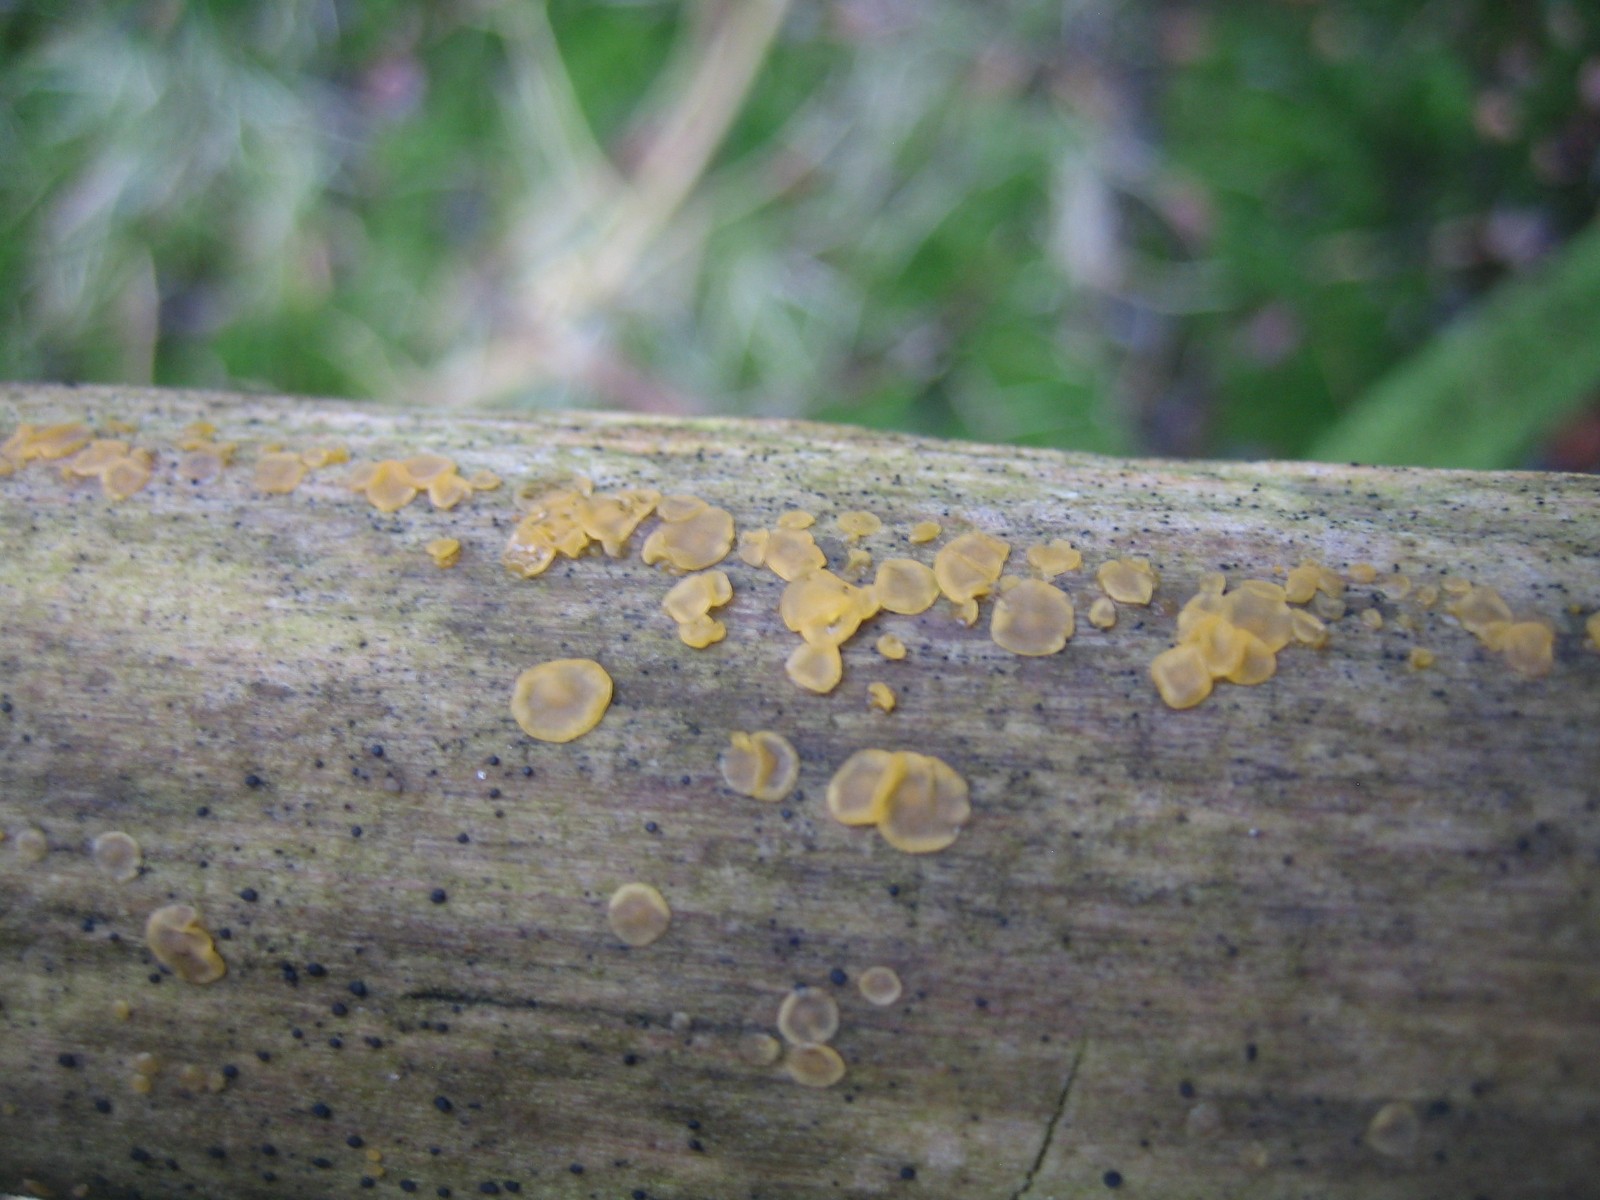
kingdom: Fungi
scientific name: Fungi
